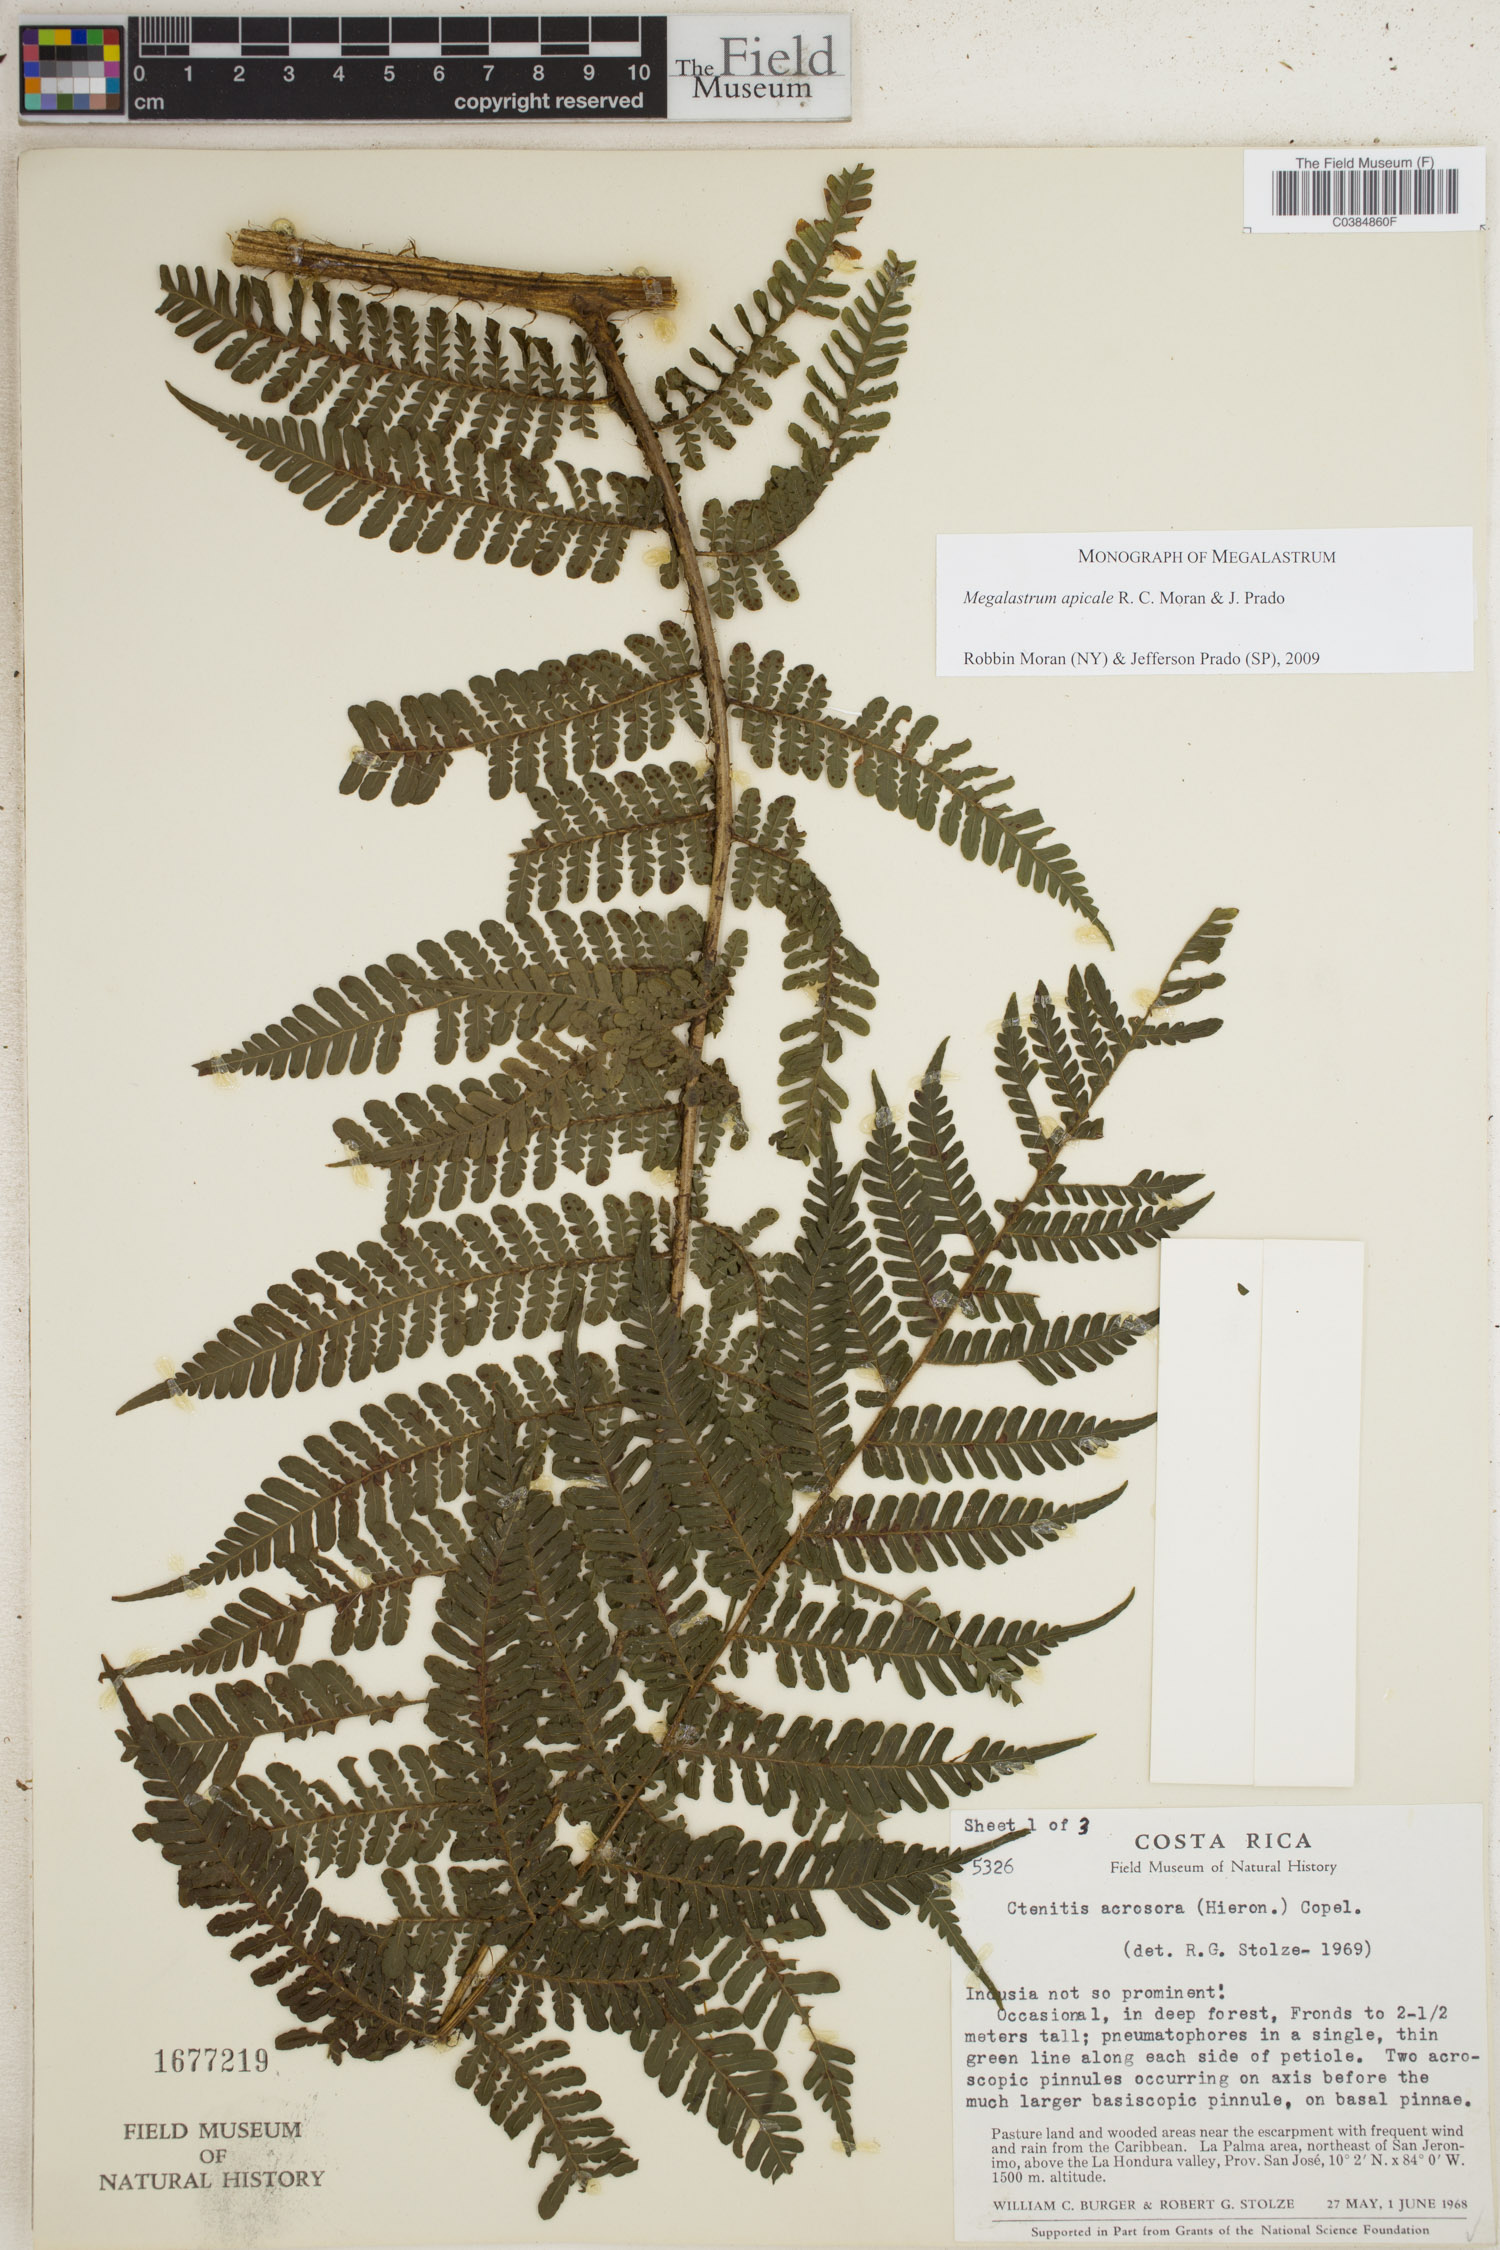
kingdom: Plantae
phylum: Tracheophyta
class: Polypodiopsida
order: Polypodiales
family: Dryopteridaceae
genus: Megalastrum
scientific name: Megalastrum apicale
